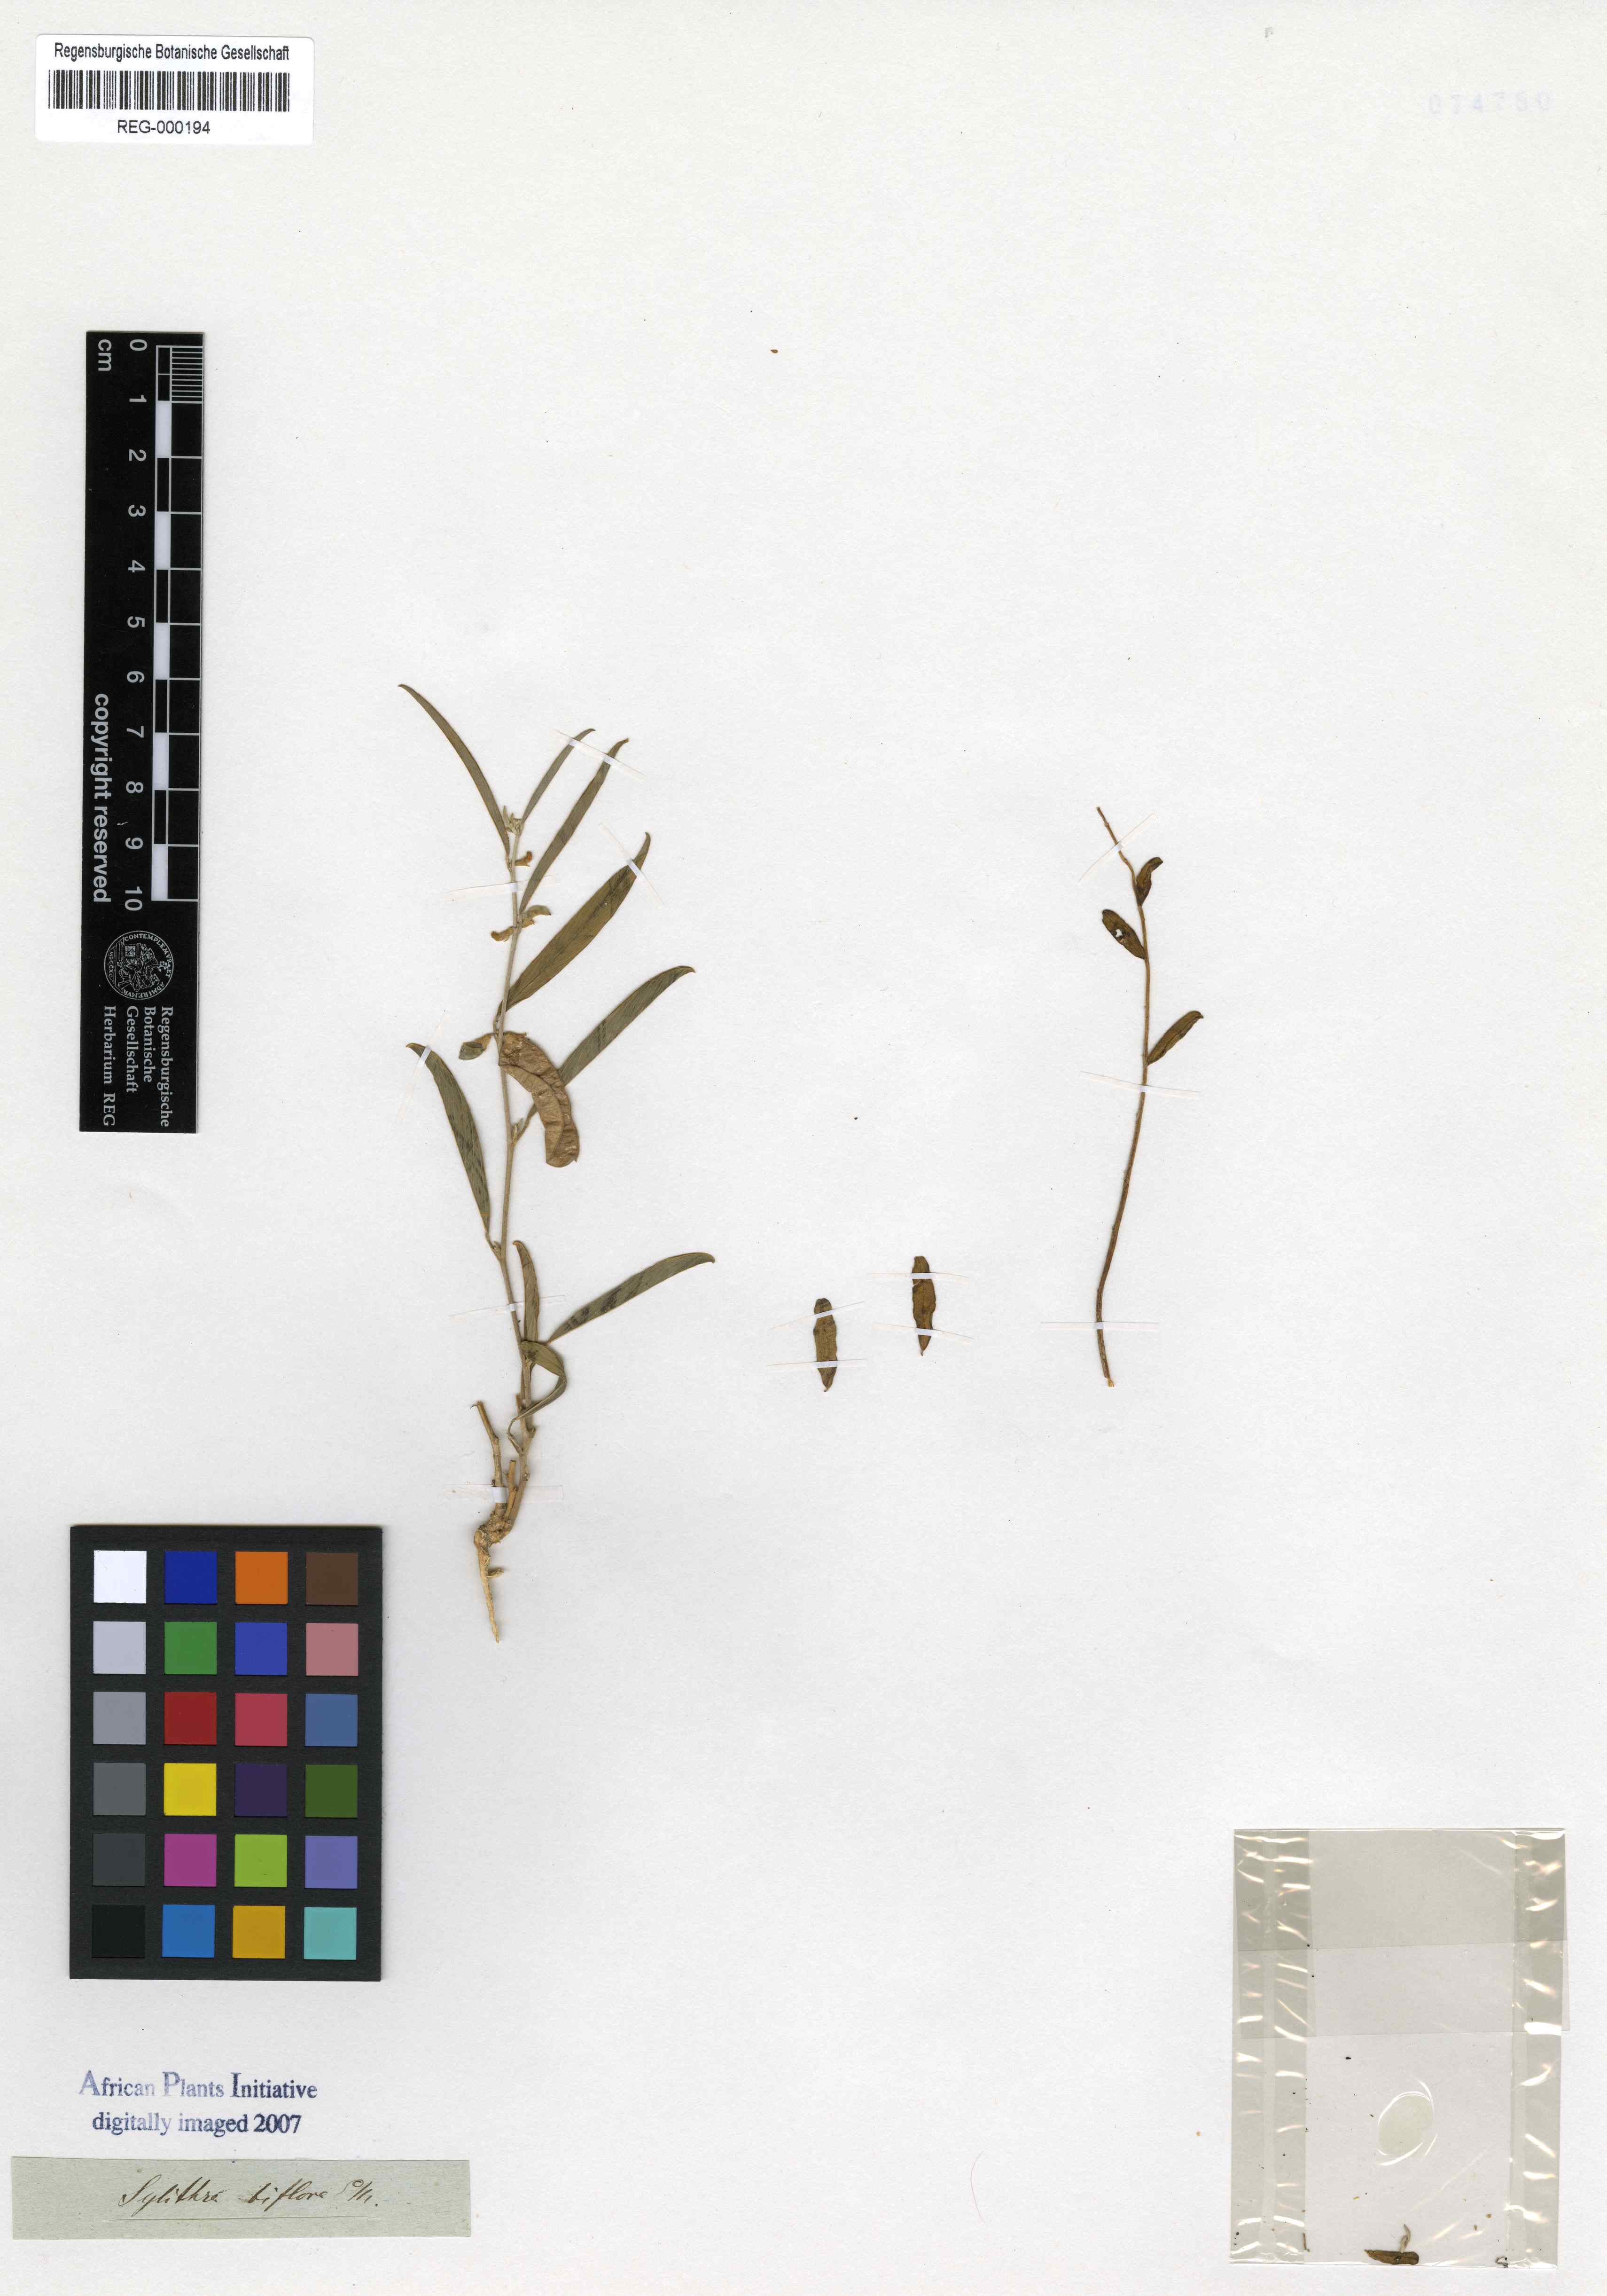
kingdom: Plantae
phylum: Tracheophyta
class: Magnoliopsida
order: Fabales
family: Fabaceae
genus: Ptycholobium
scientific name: Ptycholobium biflorum
